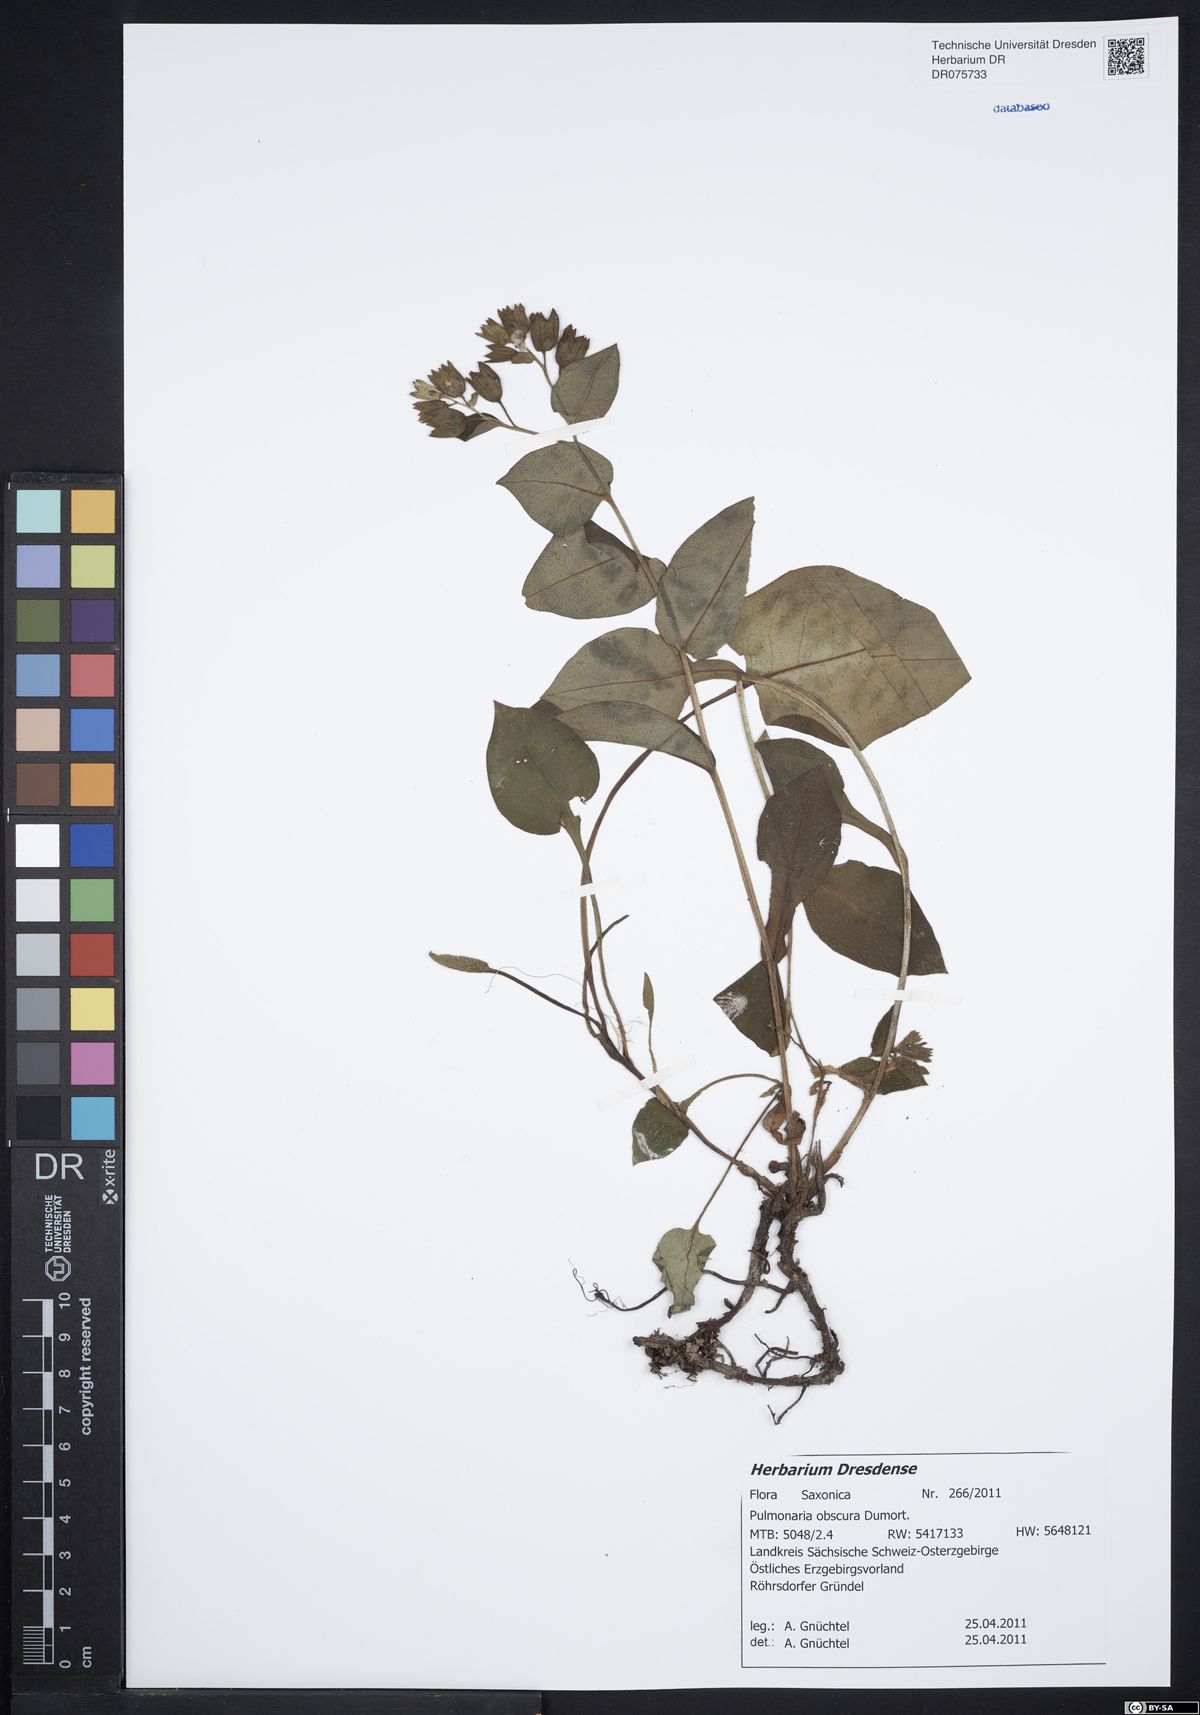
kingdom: Plantae
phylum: Tracheophyta
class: Magnoliopsida
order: Boraginales
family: Boraginaceae
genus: Pulmonaria
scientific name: Pulmonaria obscura
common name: Suffolk lungwort
